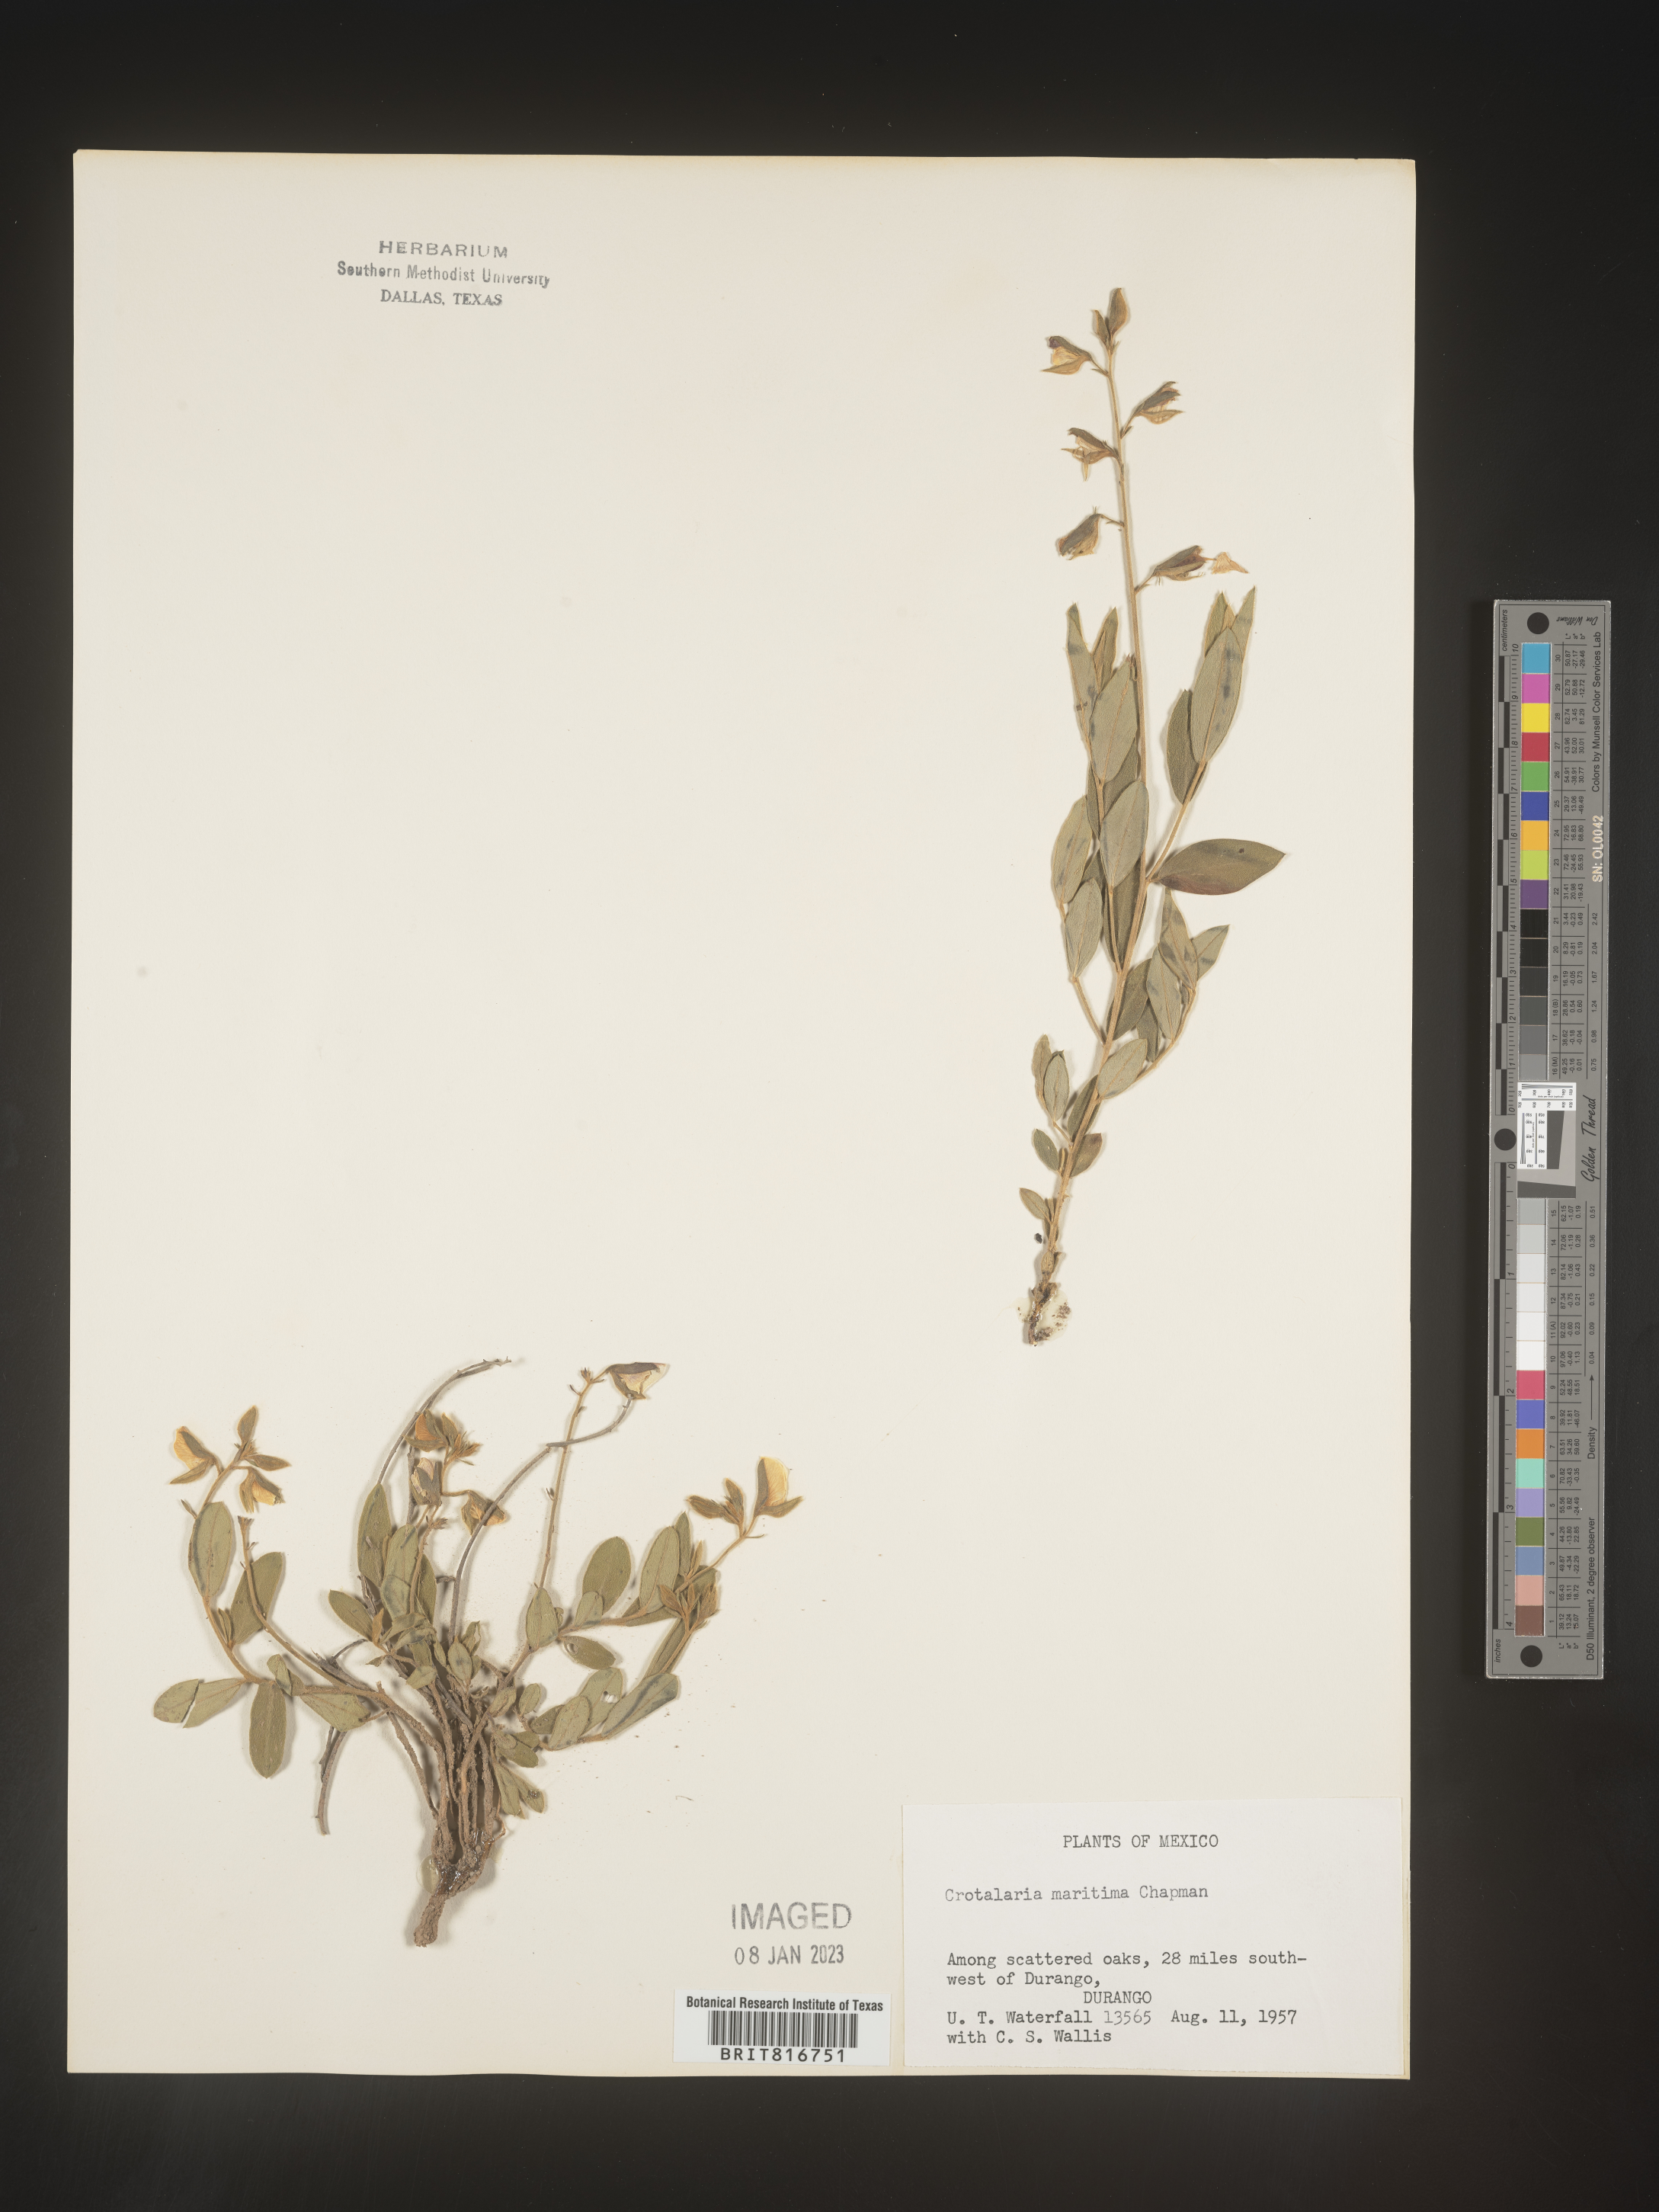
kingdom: Plantae
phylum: Tracheophyta
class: Magnoliopsida
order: Fabales
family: Fabaceae
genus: Crotalaria
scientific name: Crotalaria
